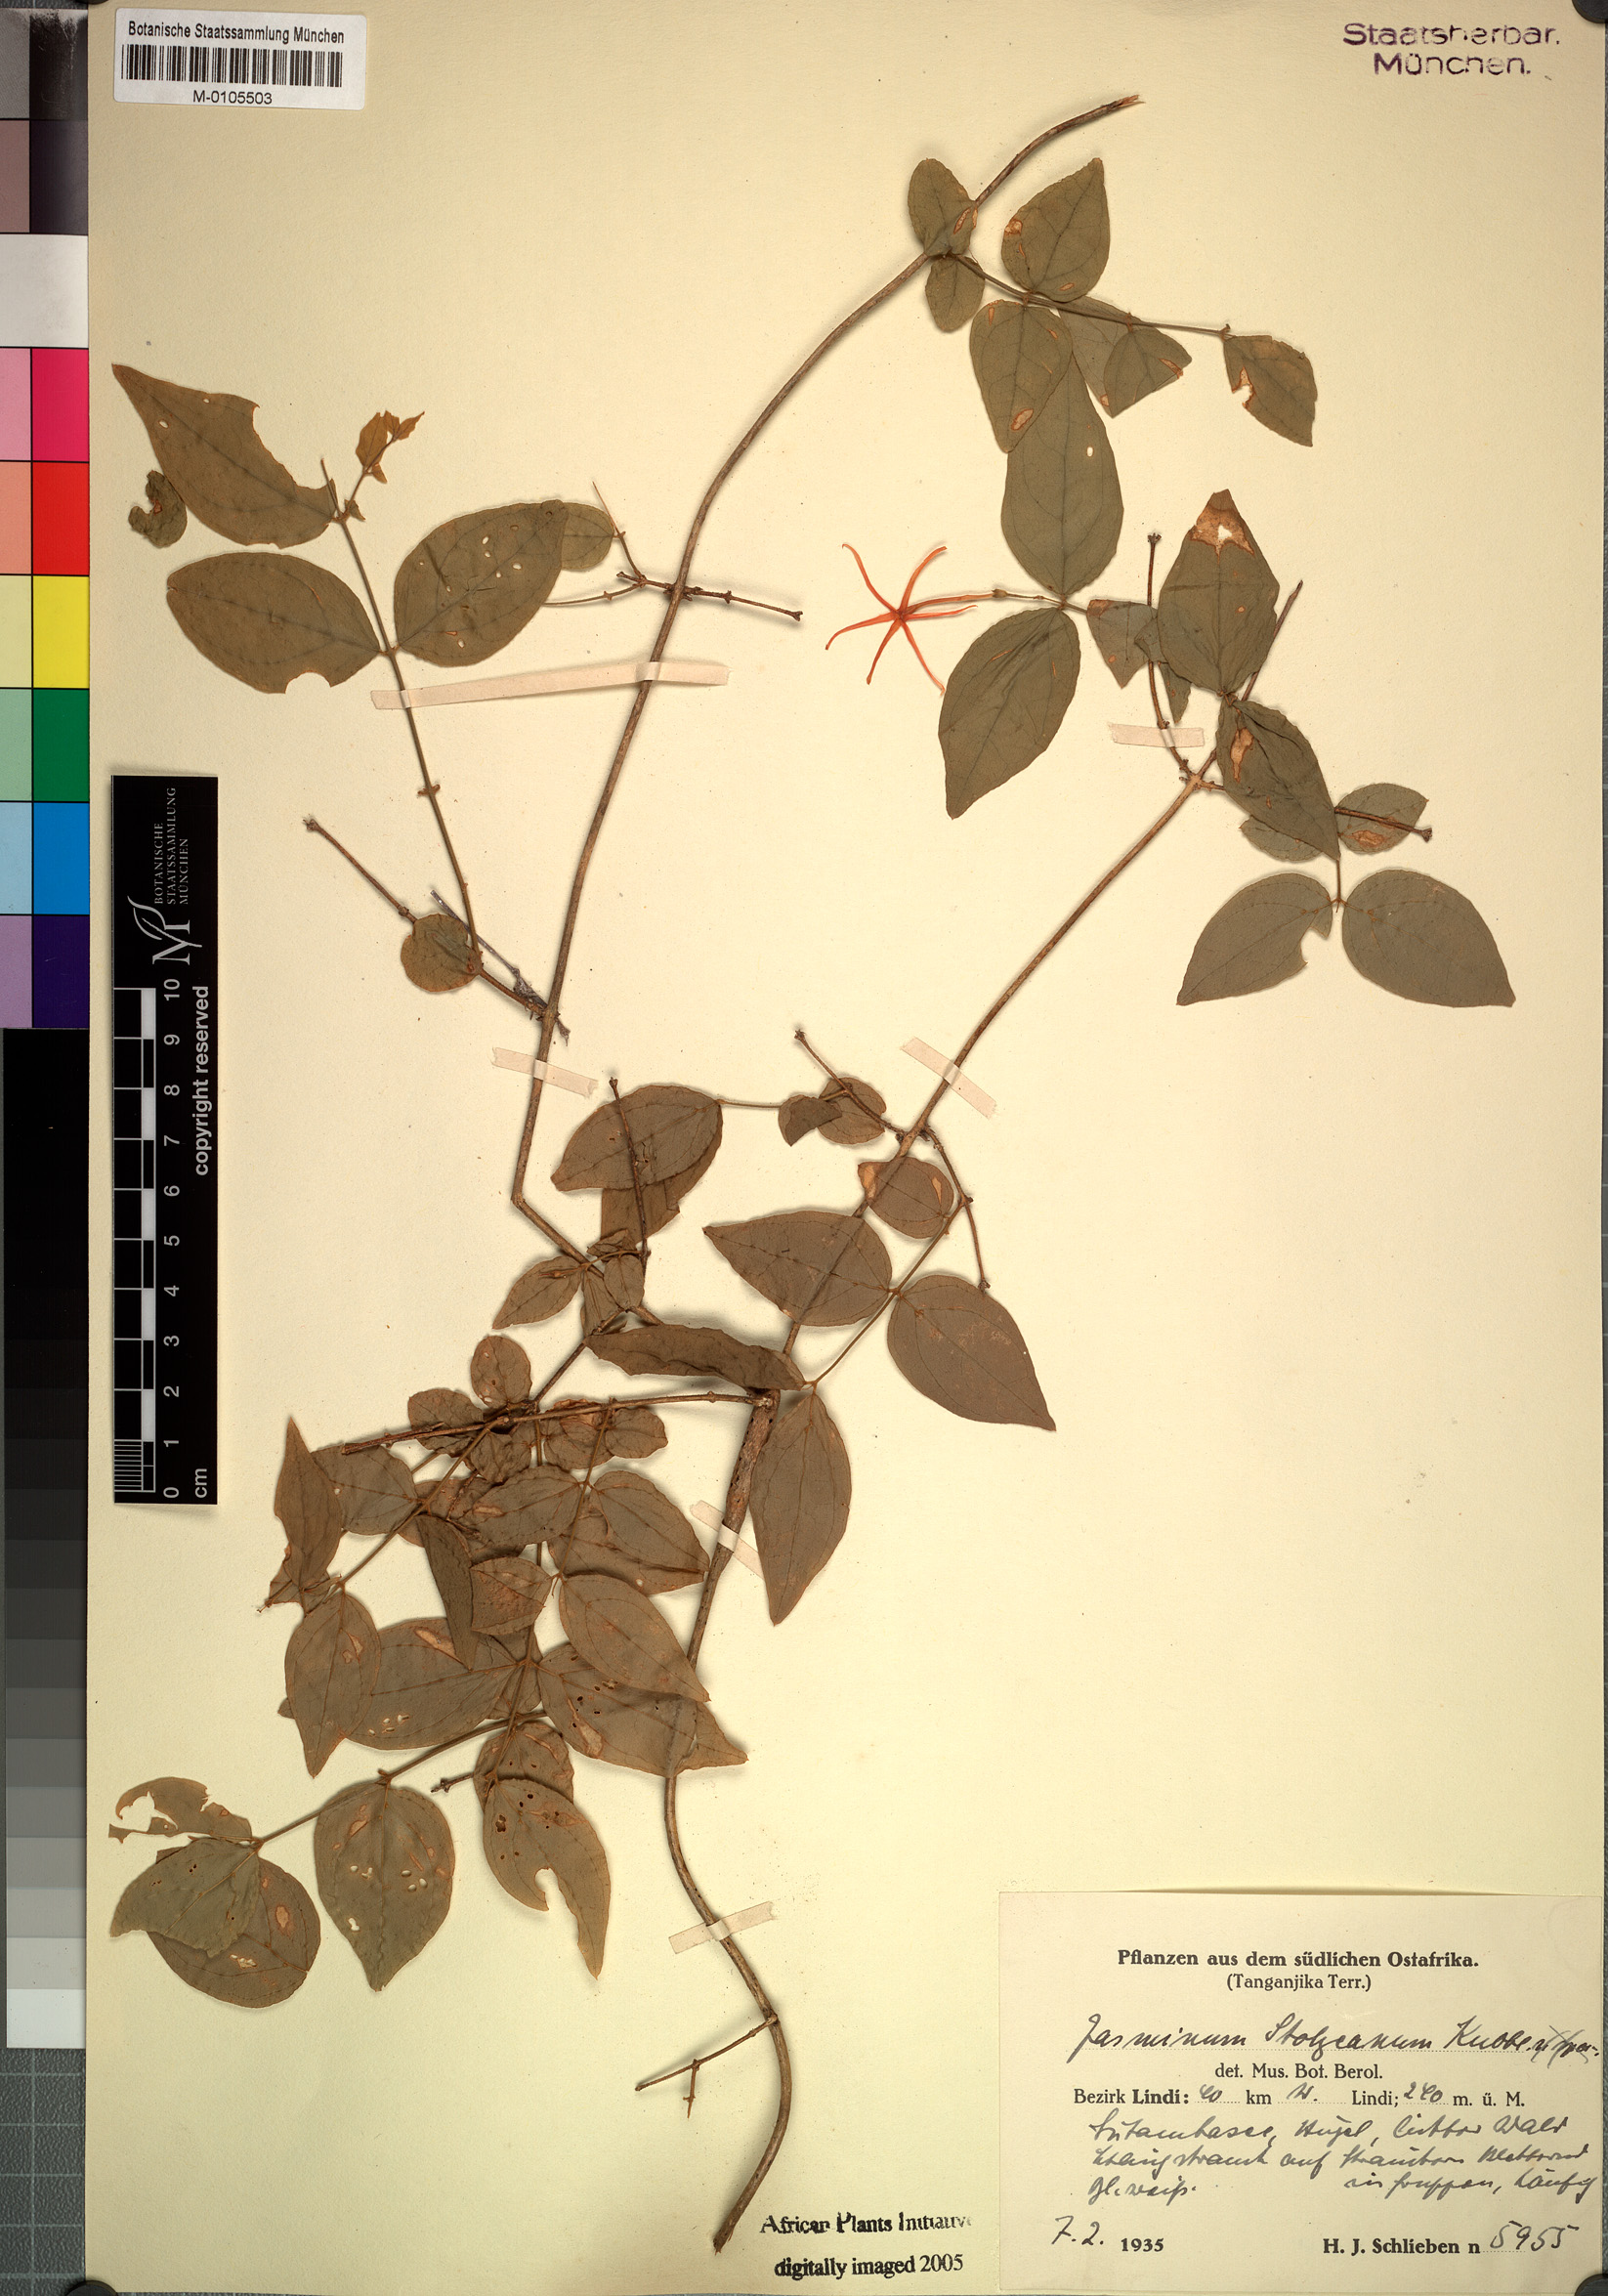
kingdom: Plantae
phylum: Tracheophyta
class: Magnoliopsida
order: Lamiales
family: Oleaceae
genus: Jasminum
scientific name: Jasminum streptopus
